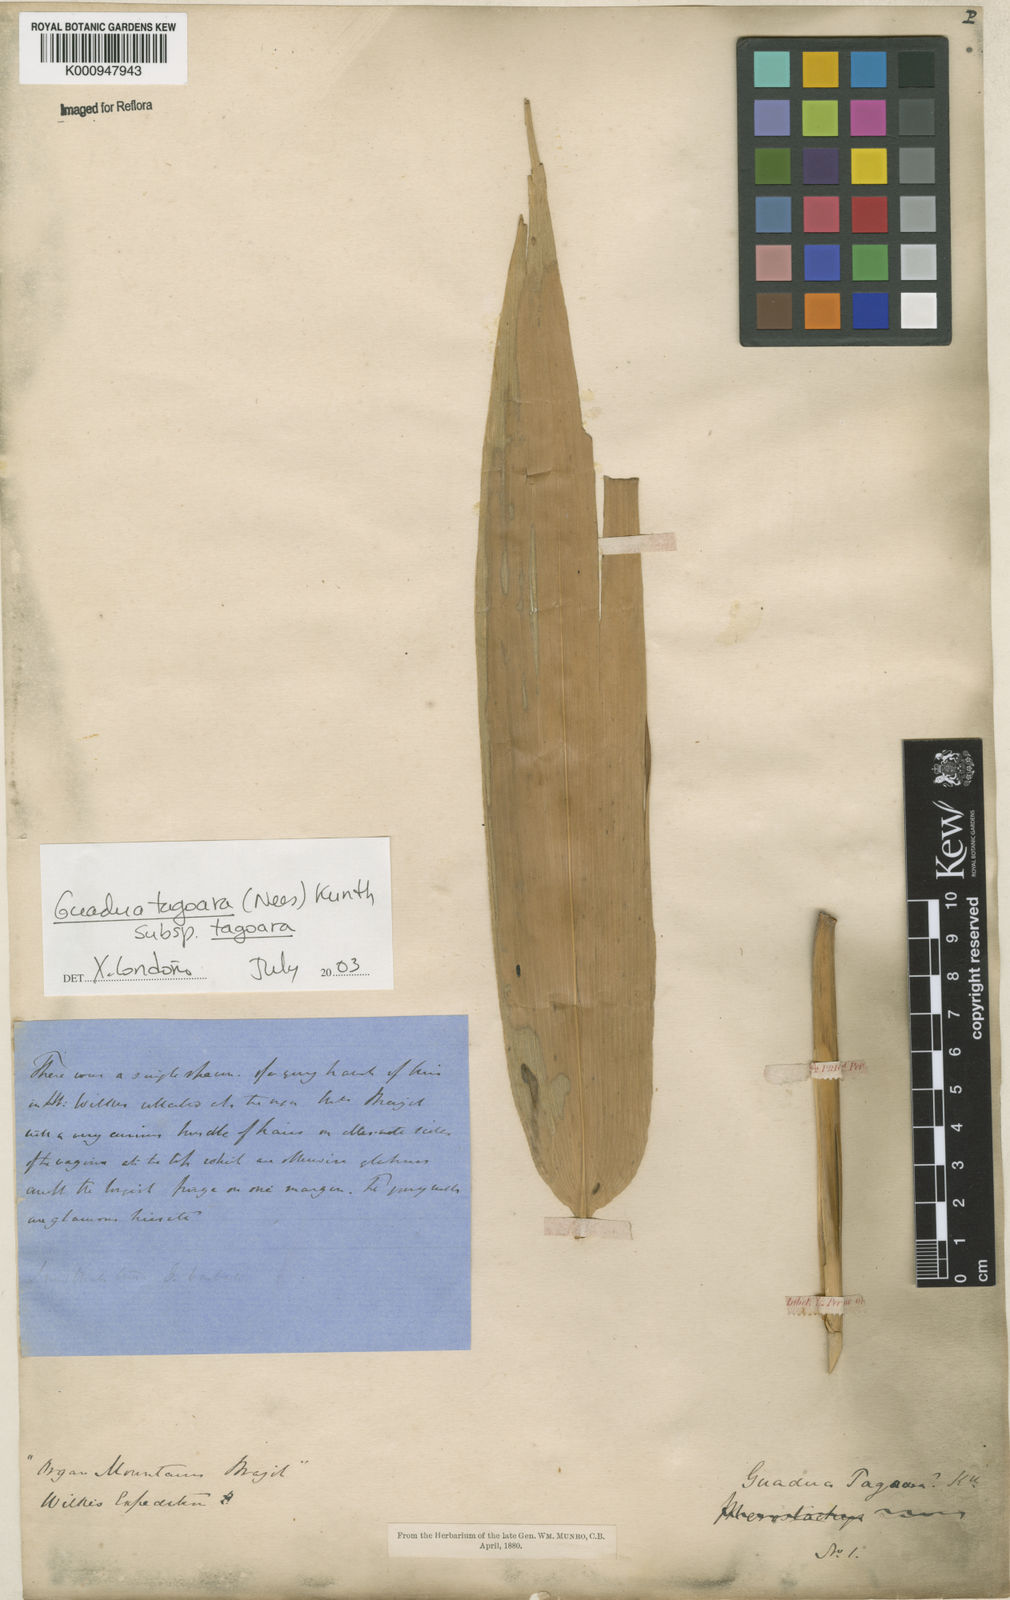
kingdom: Plantae
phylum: Tracheophyta
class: Liliopsida
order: Poales
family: Poaceae
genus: Guadua
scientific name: Guadua tagoara
